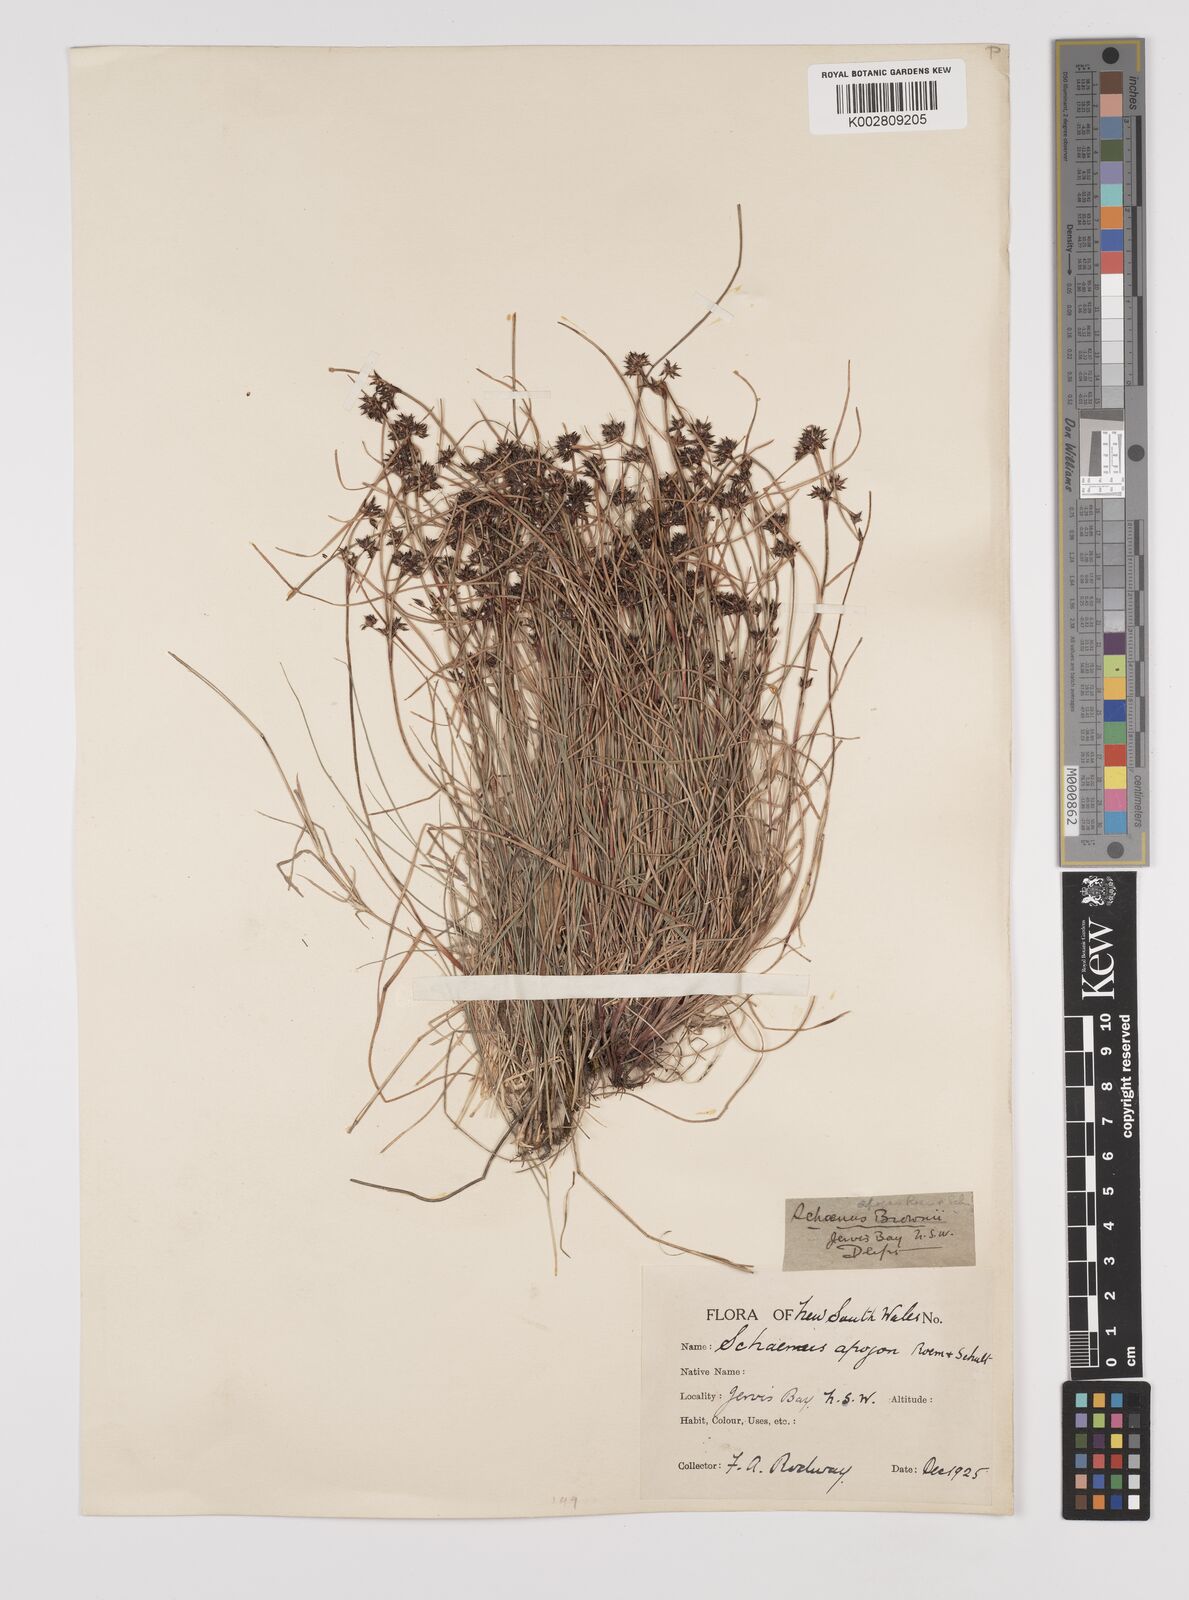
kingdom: Plantae
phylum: Tracheophyta
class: Liliopsida
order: Poales
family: Cyperaceae
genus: Schoenus
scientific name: Schoenus apogon
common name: Smooth bogrush
